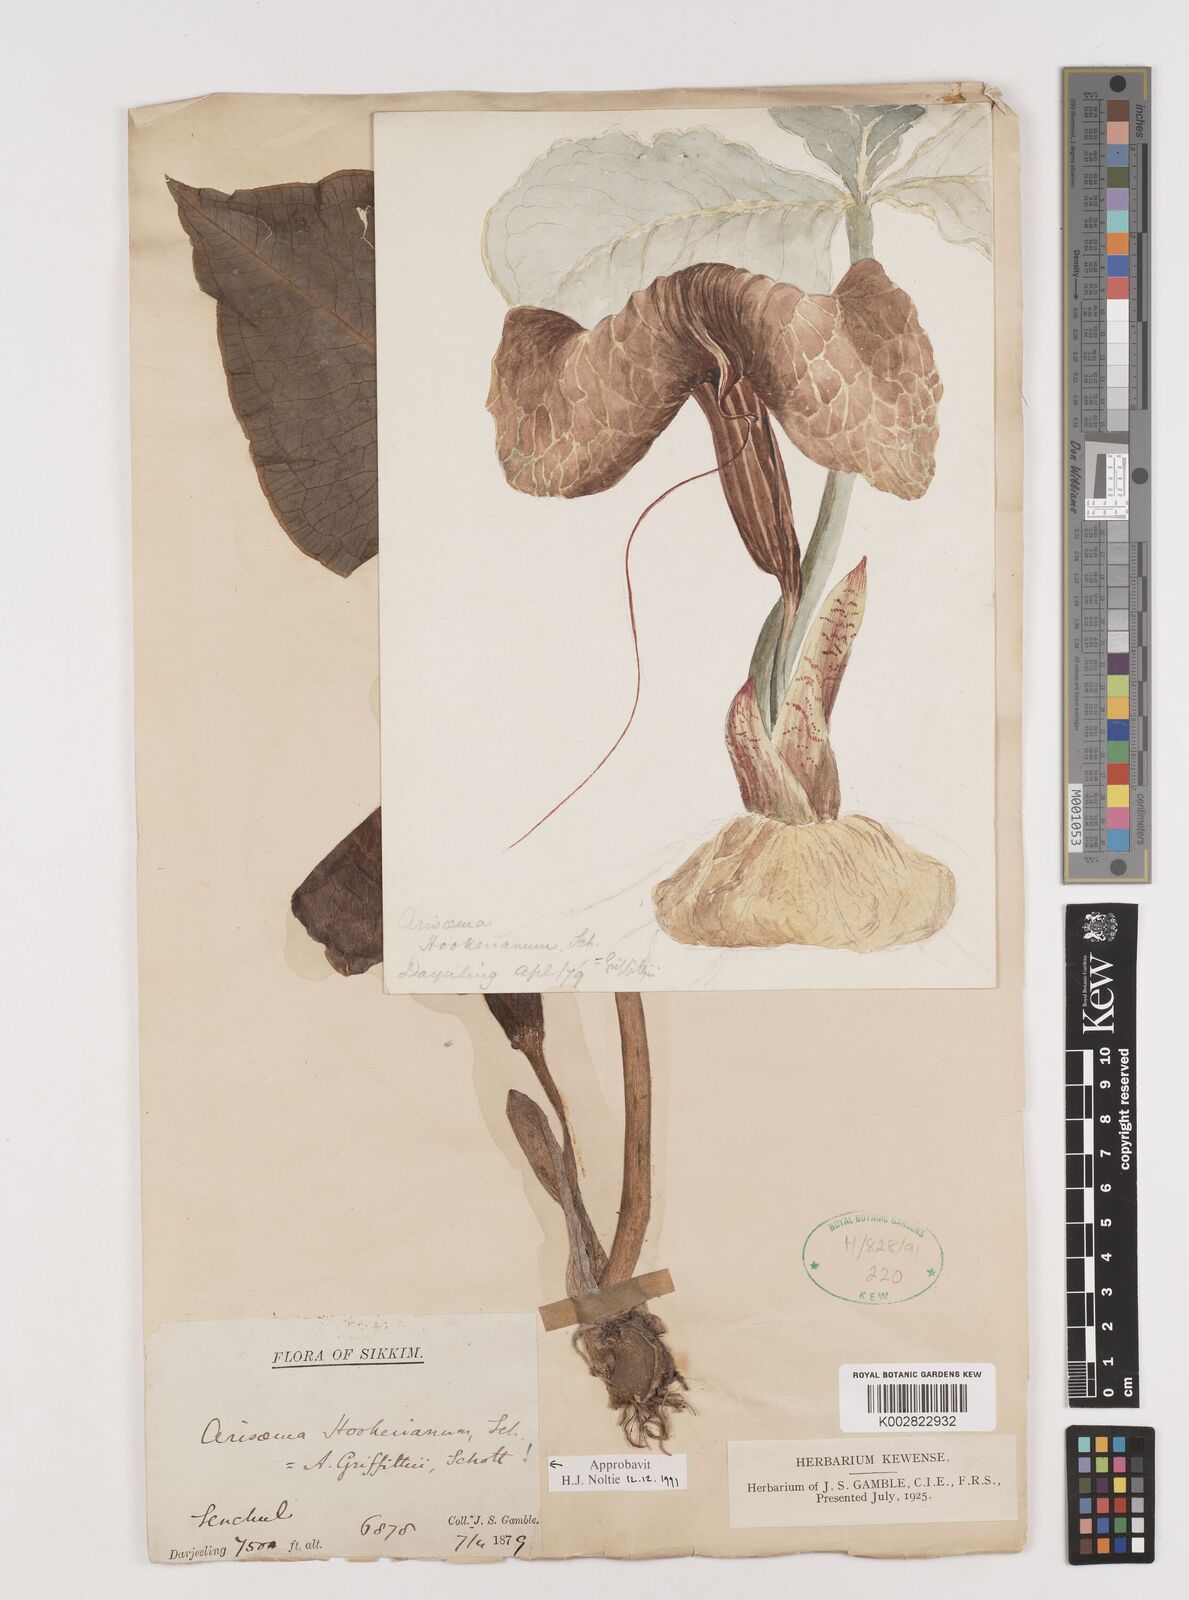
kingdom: Plantae
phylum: Tracheophyta
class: Liliopsida
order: Alismatales
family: Araceae
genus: Arisaema
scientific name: Arisaema griffithii
